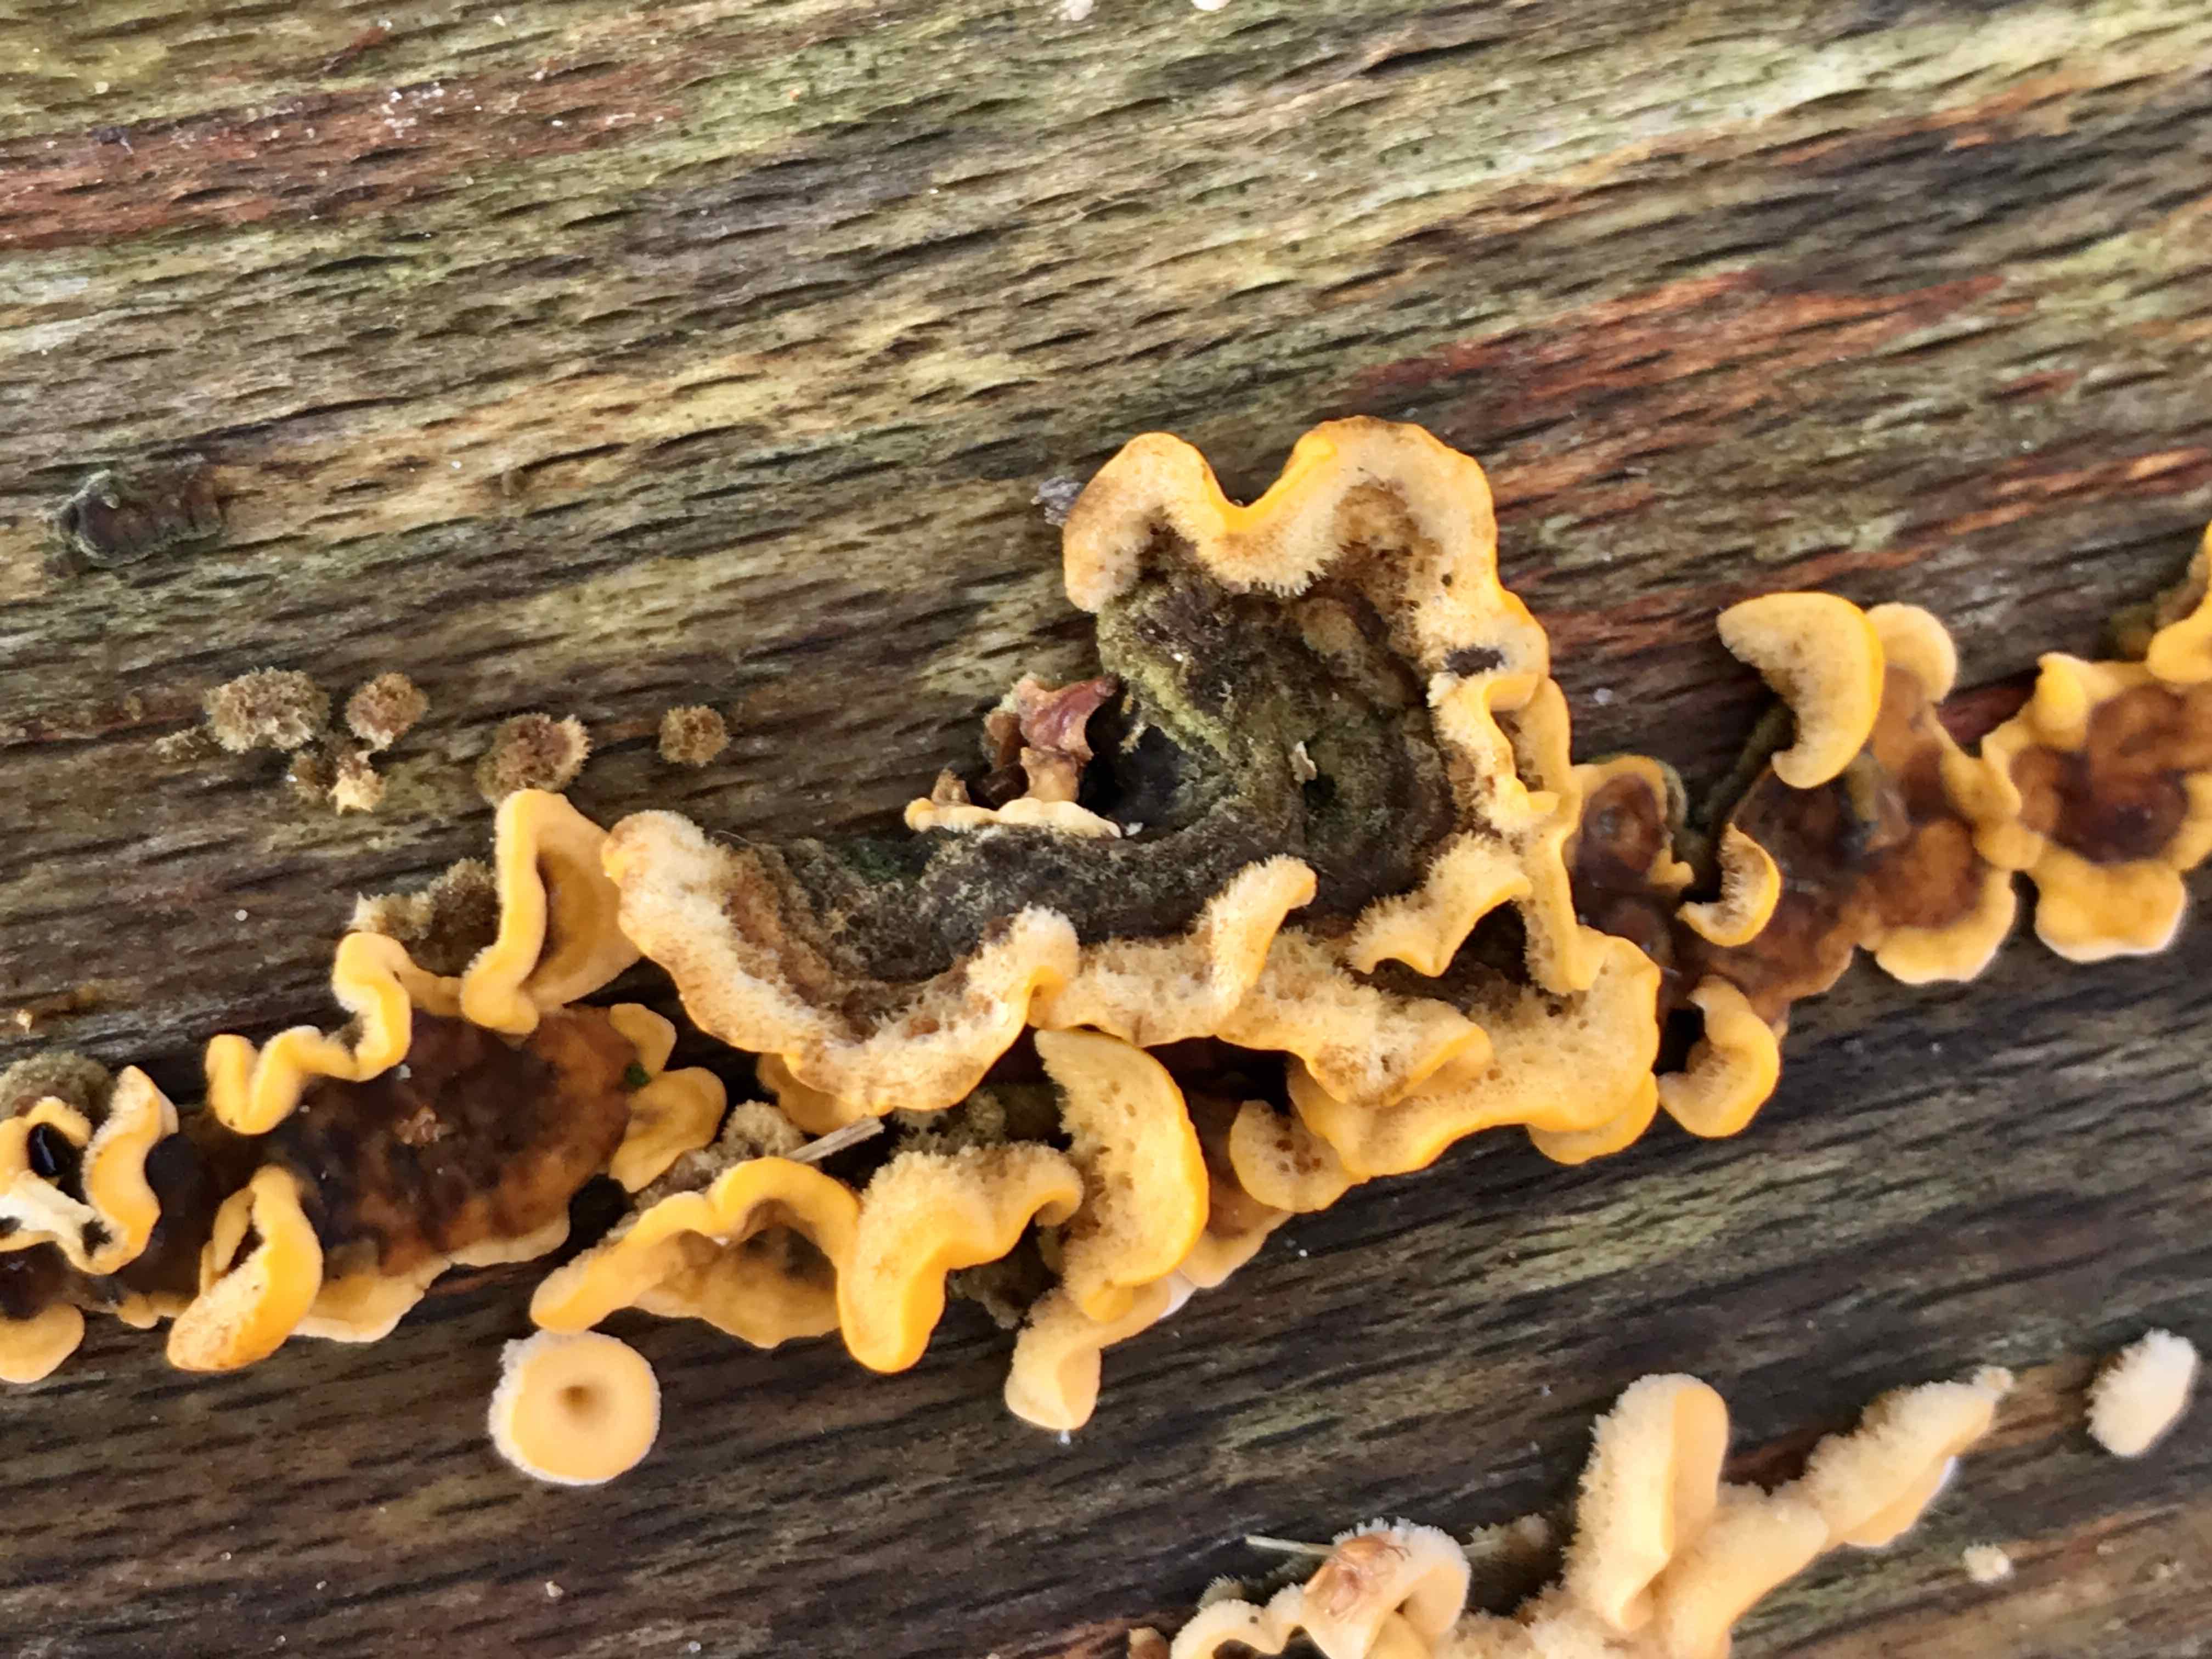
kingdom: Fungi
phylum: Basidiomycota
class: Agaricomycetes
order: Russulales
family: Stereaceae
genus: Stereum
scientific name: Stereum hirsutum
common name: håret lædersvamp
